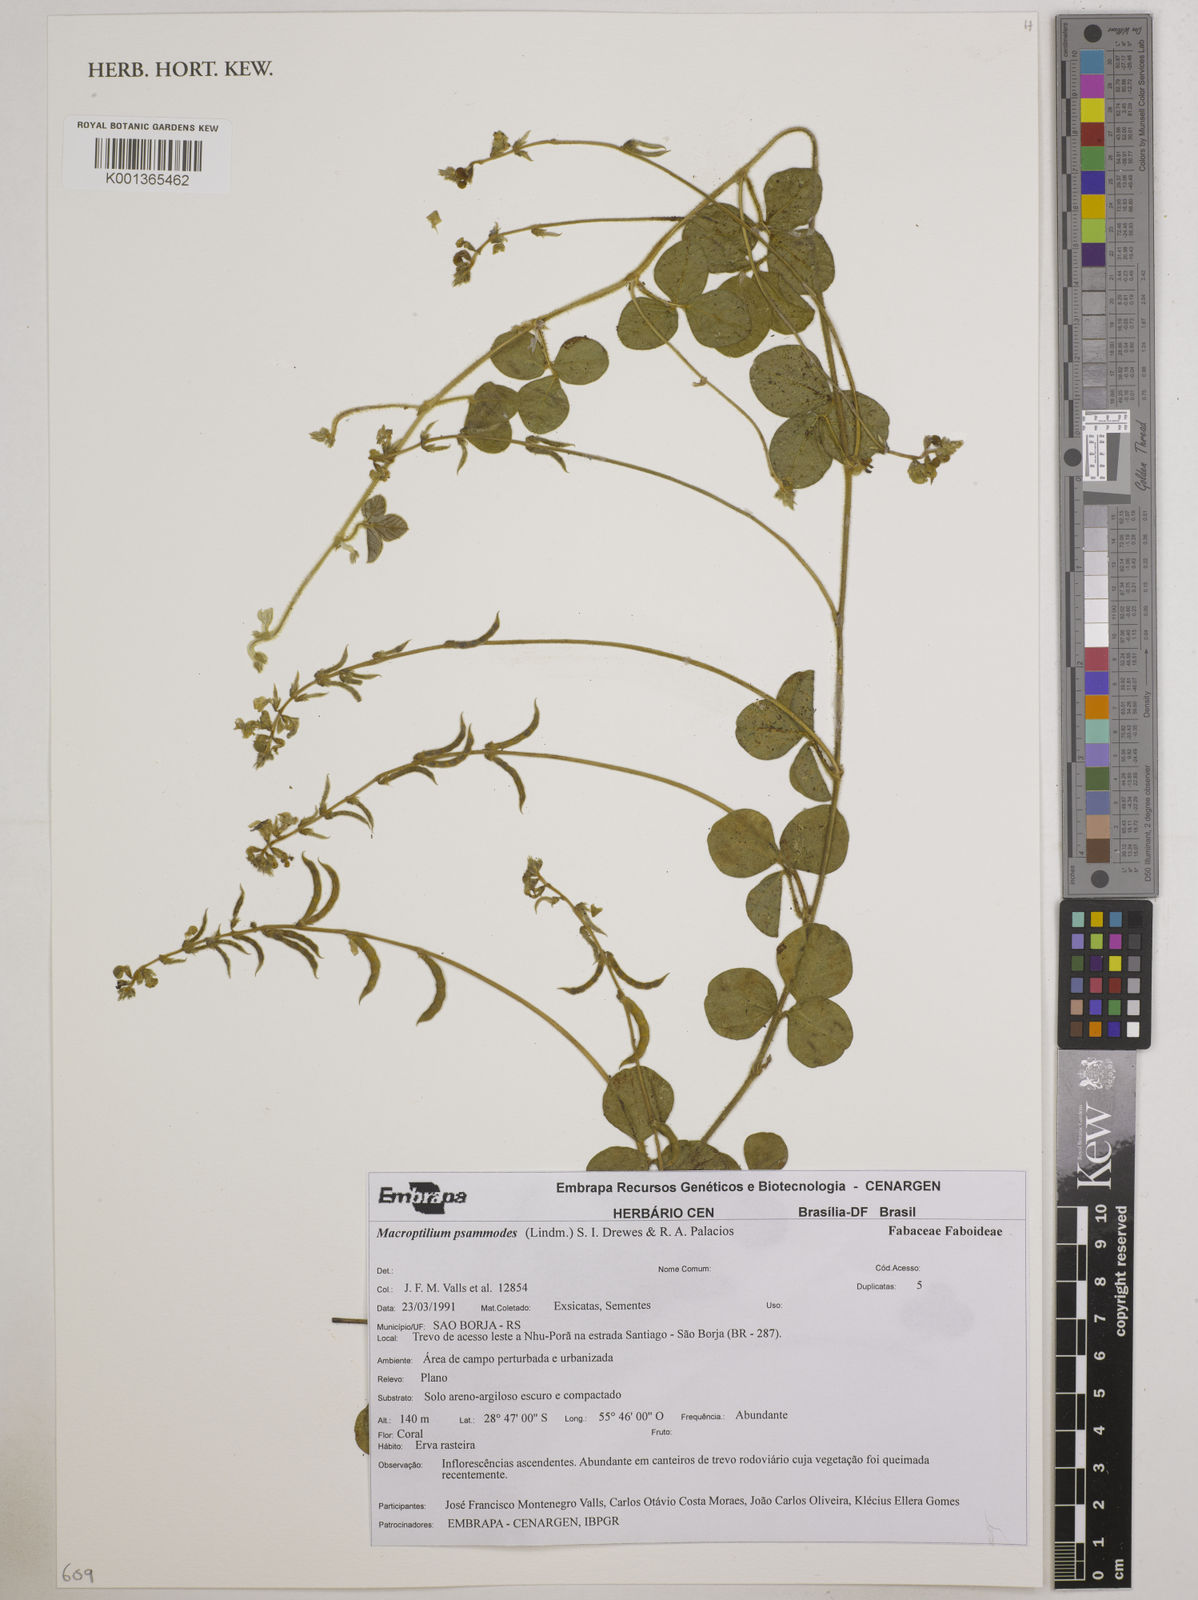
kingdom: Plantae
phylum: Tracheophyta
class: Magnoliopsida
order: Fabales
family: Fabaceae
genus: Macroptilium
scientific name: Macroptilium psammodes
